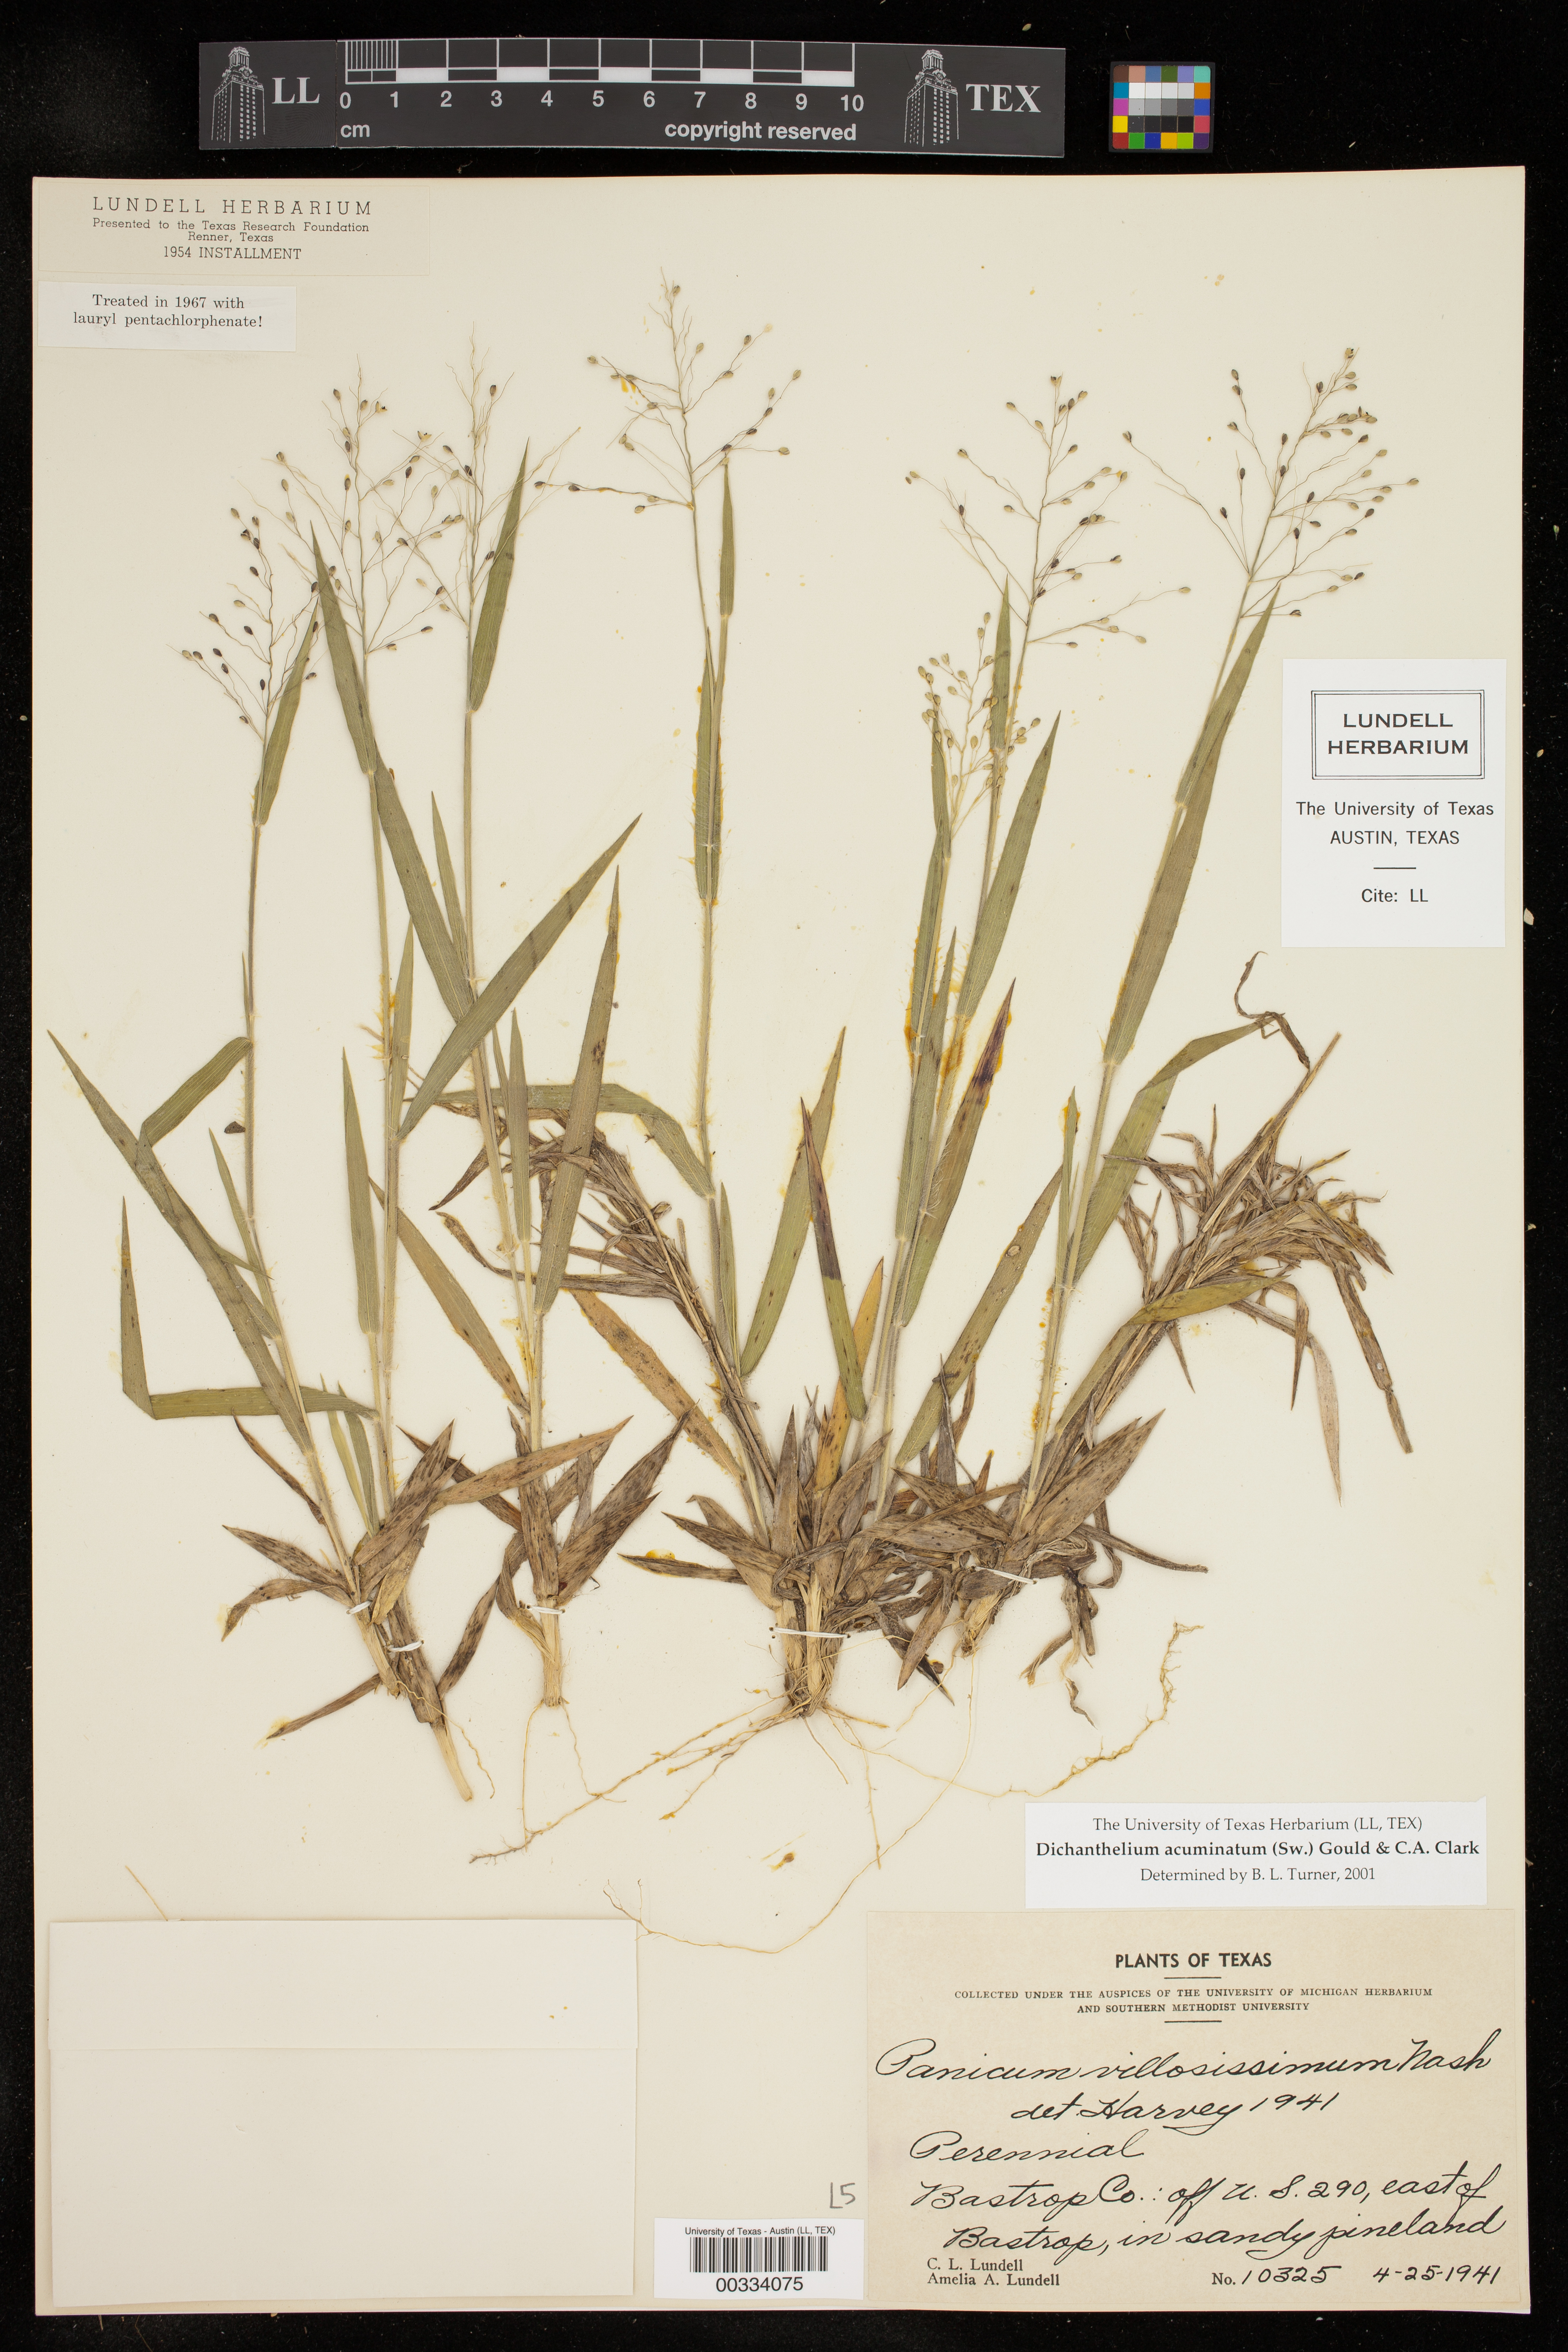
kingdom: Plantae
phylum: Tracheophyta
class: Liliopsida
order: Poales
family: Poaceae
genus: Dichanthelium
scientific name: Dichanthelium acuminatum
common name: Hairy panic grass
